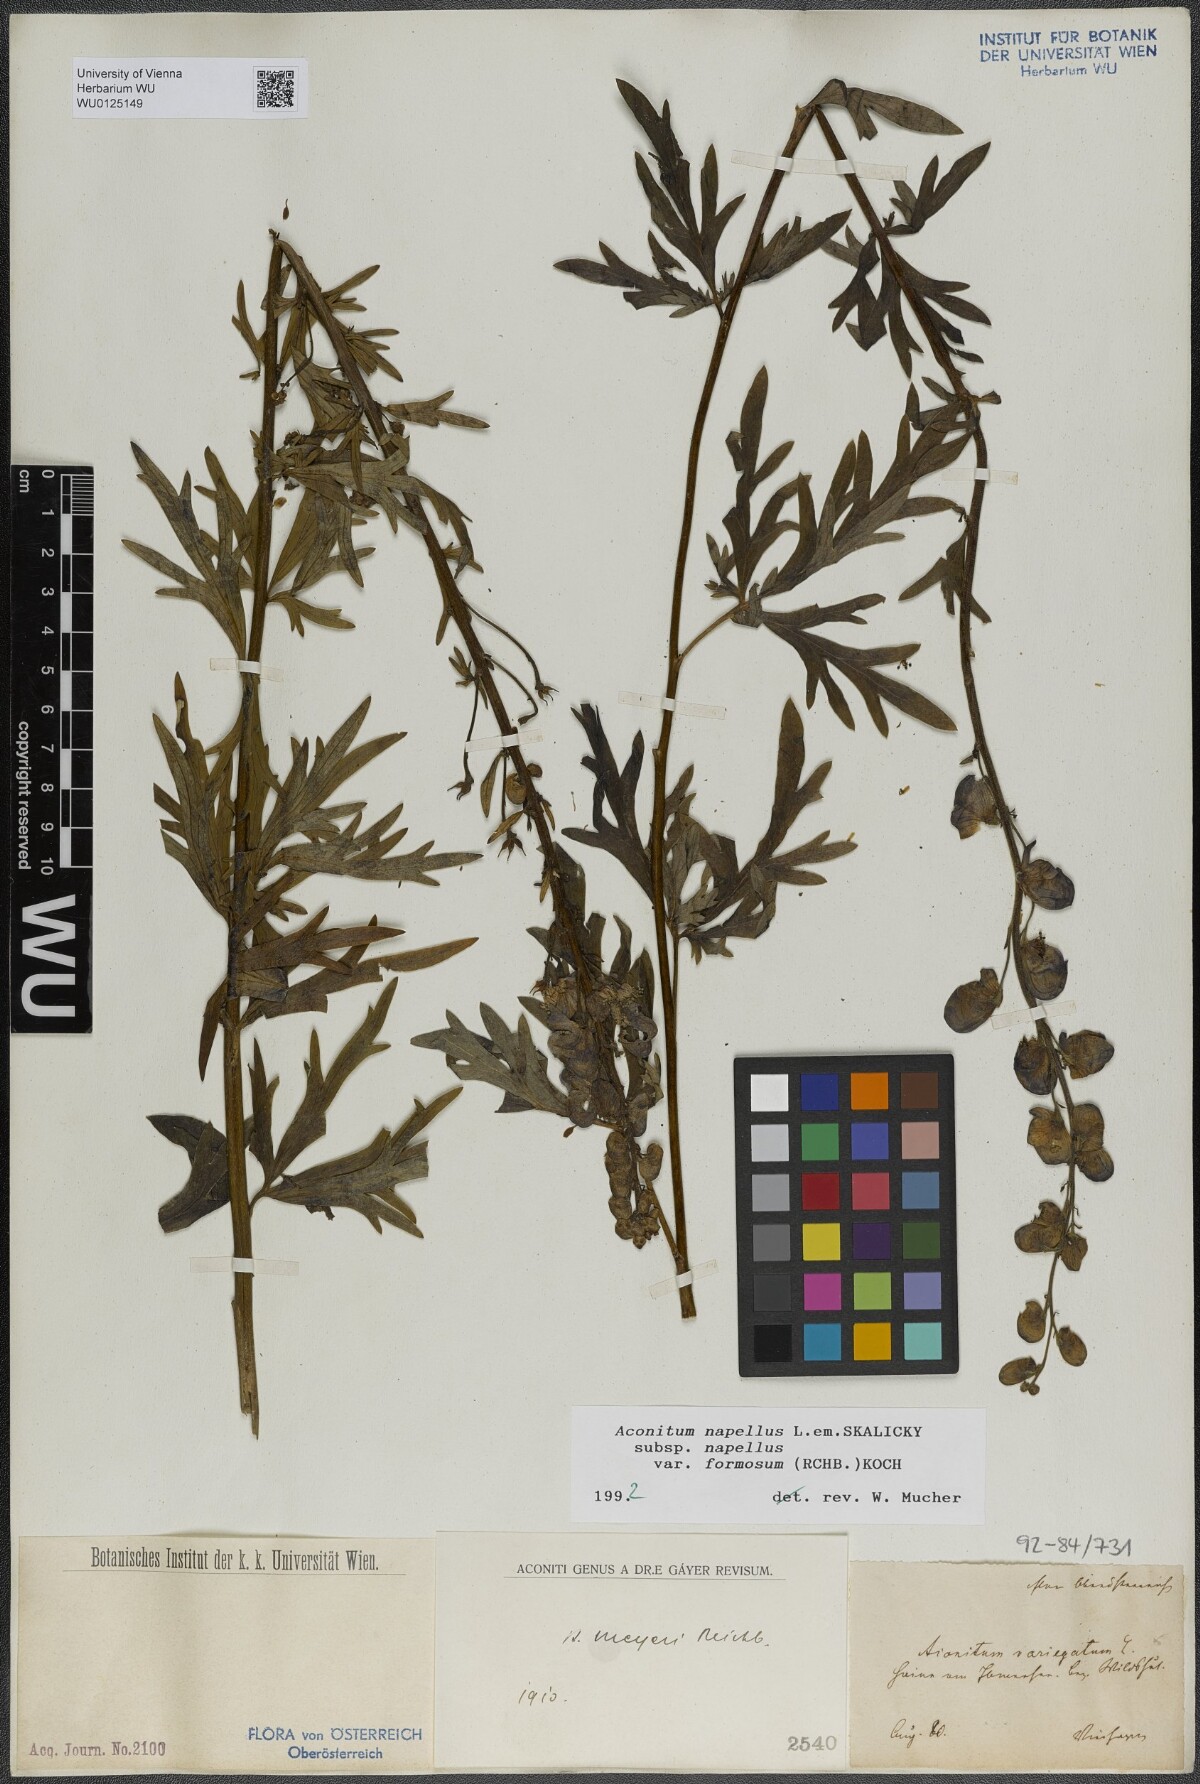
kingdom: Plantae
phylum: Tracheophyta
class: Magnoliopsida
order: Ranunculales
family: Ranunculaceae
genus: Aconitum
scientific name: Aconitum napellus
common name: Garden monkshood
